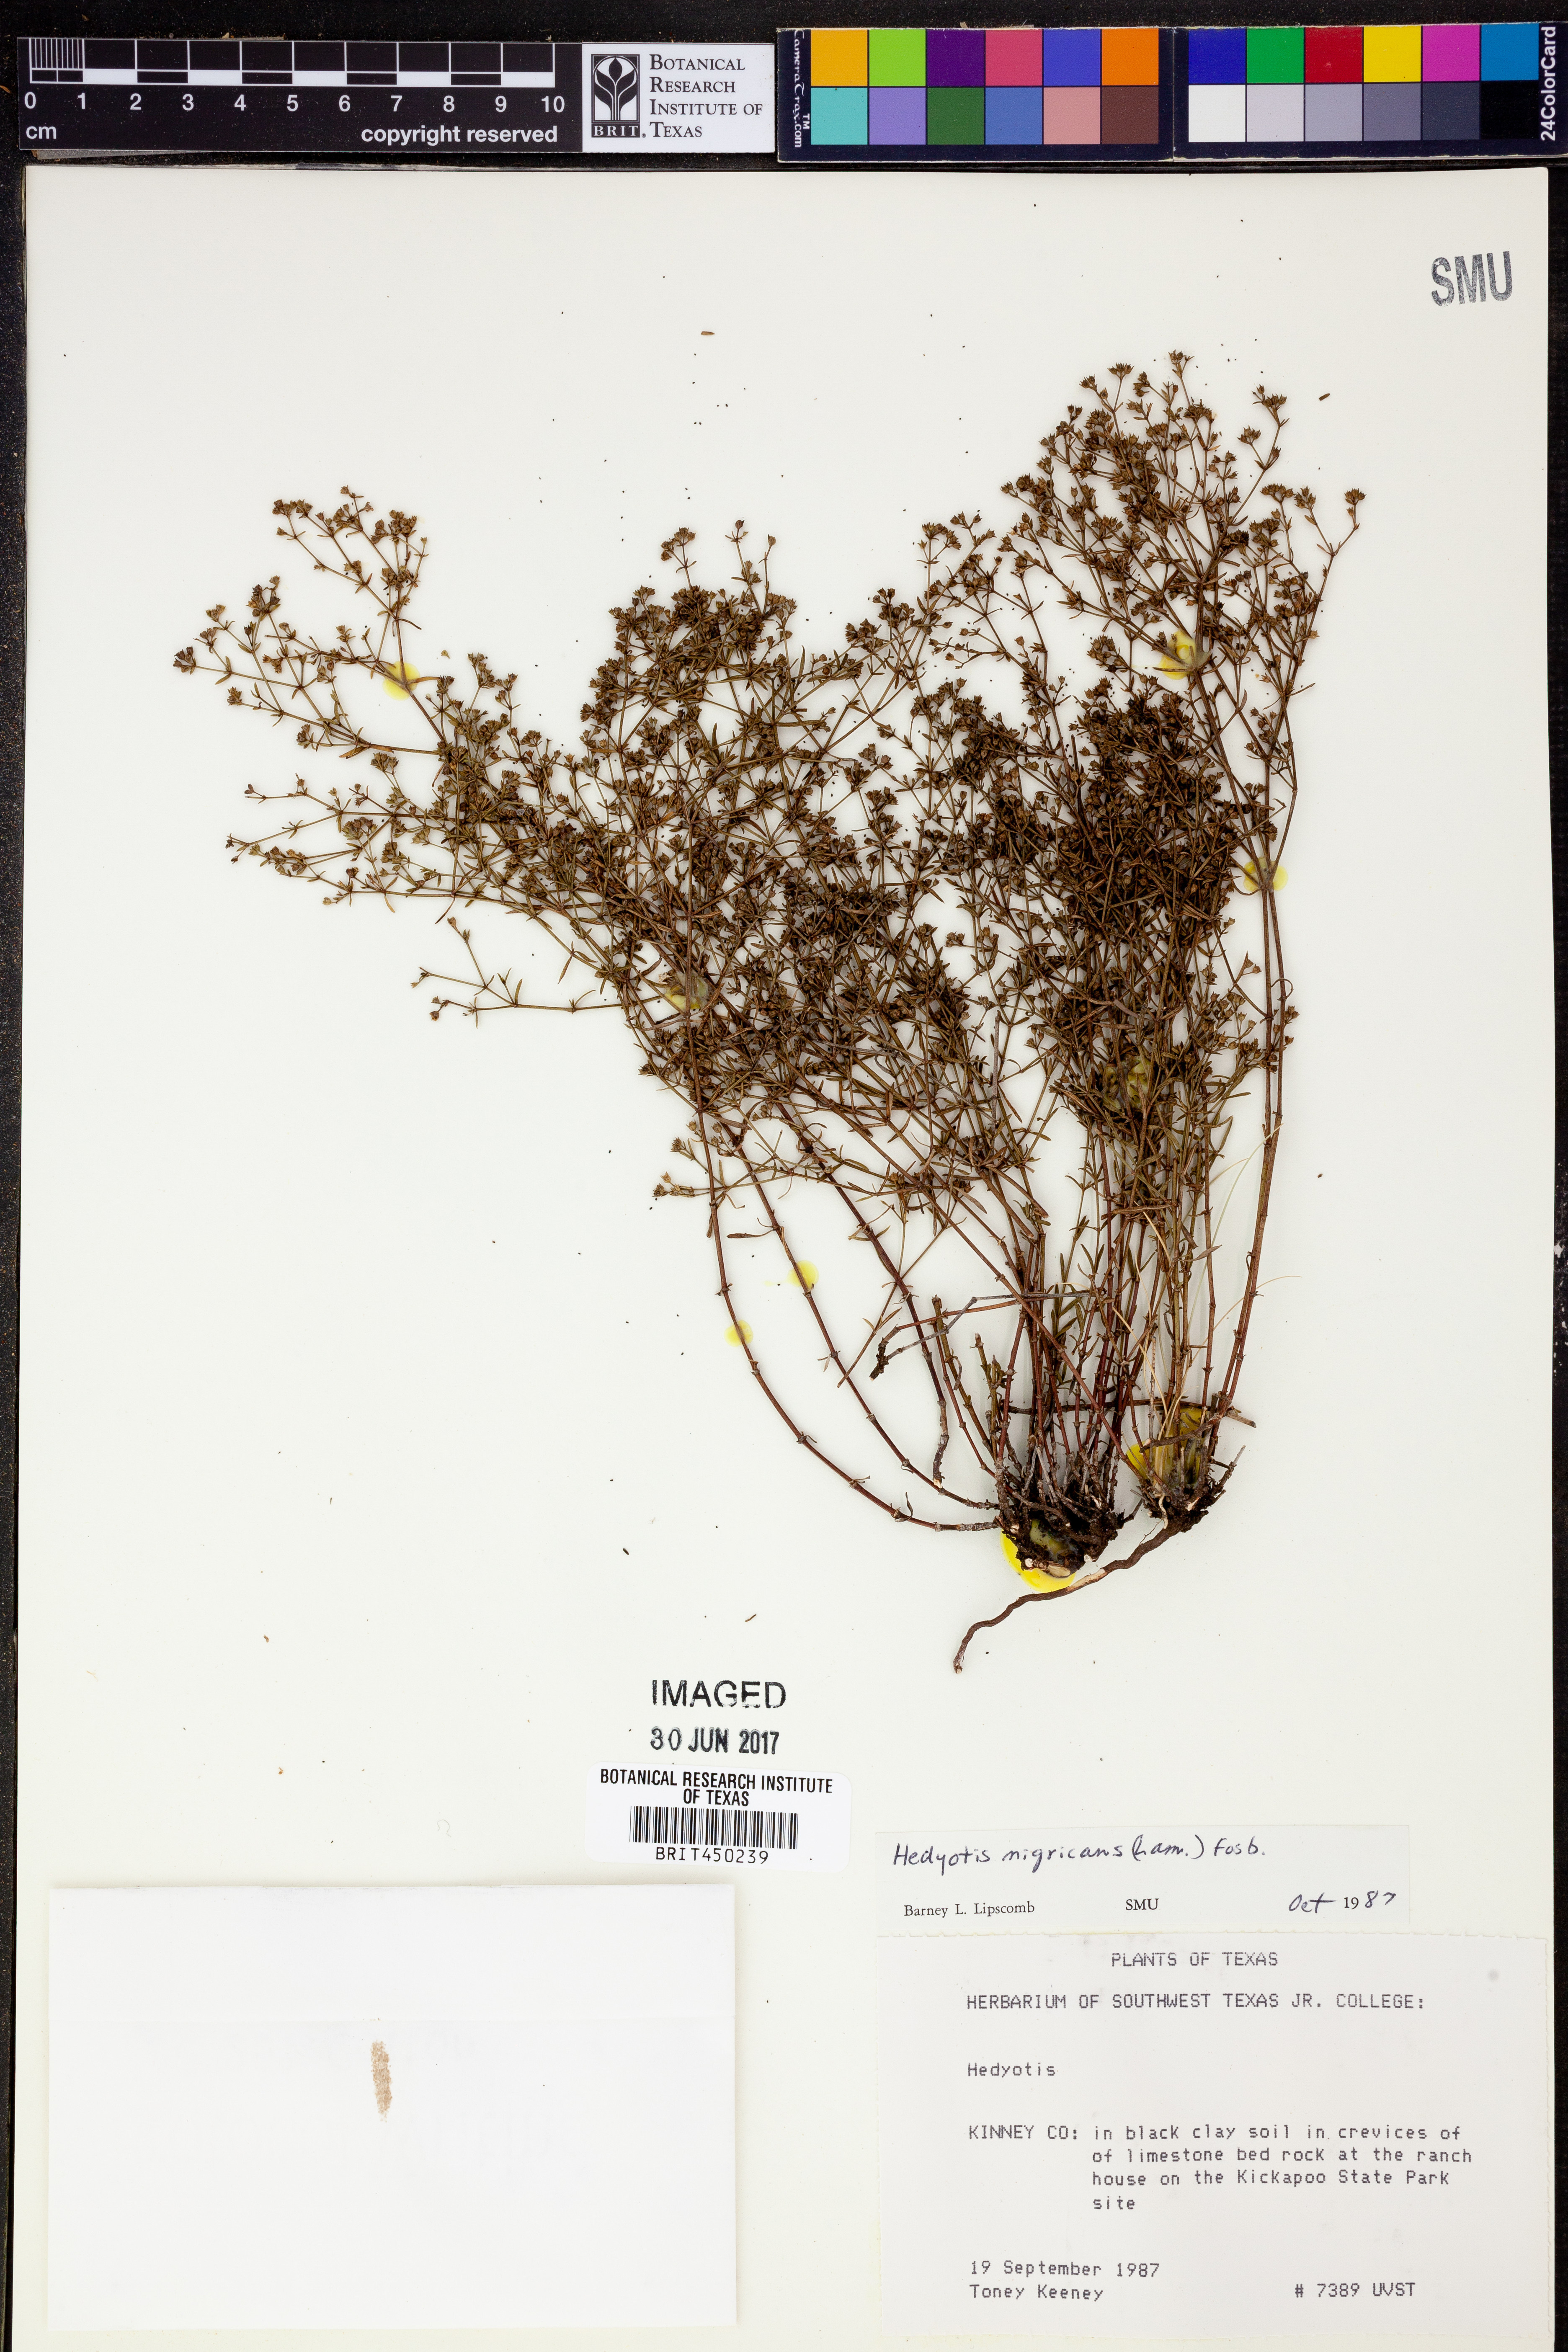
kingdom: Plantae
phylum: Tracheophyta
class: Magnoliopsida
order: Gentianales
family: Rubiaceae
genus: Stenaria
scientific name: Stenaria nigricans
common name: Diamondflowers
